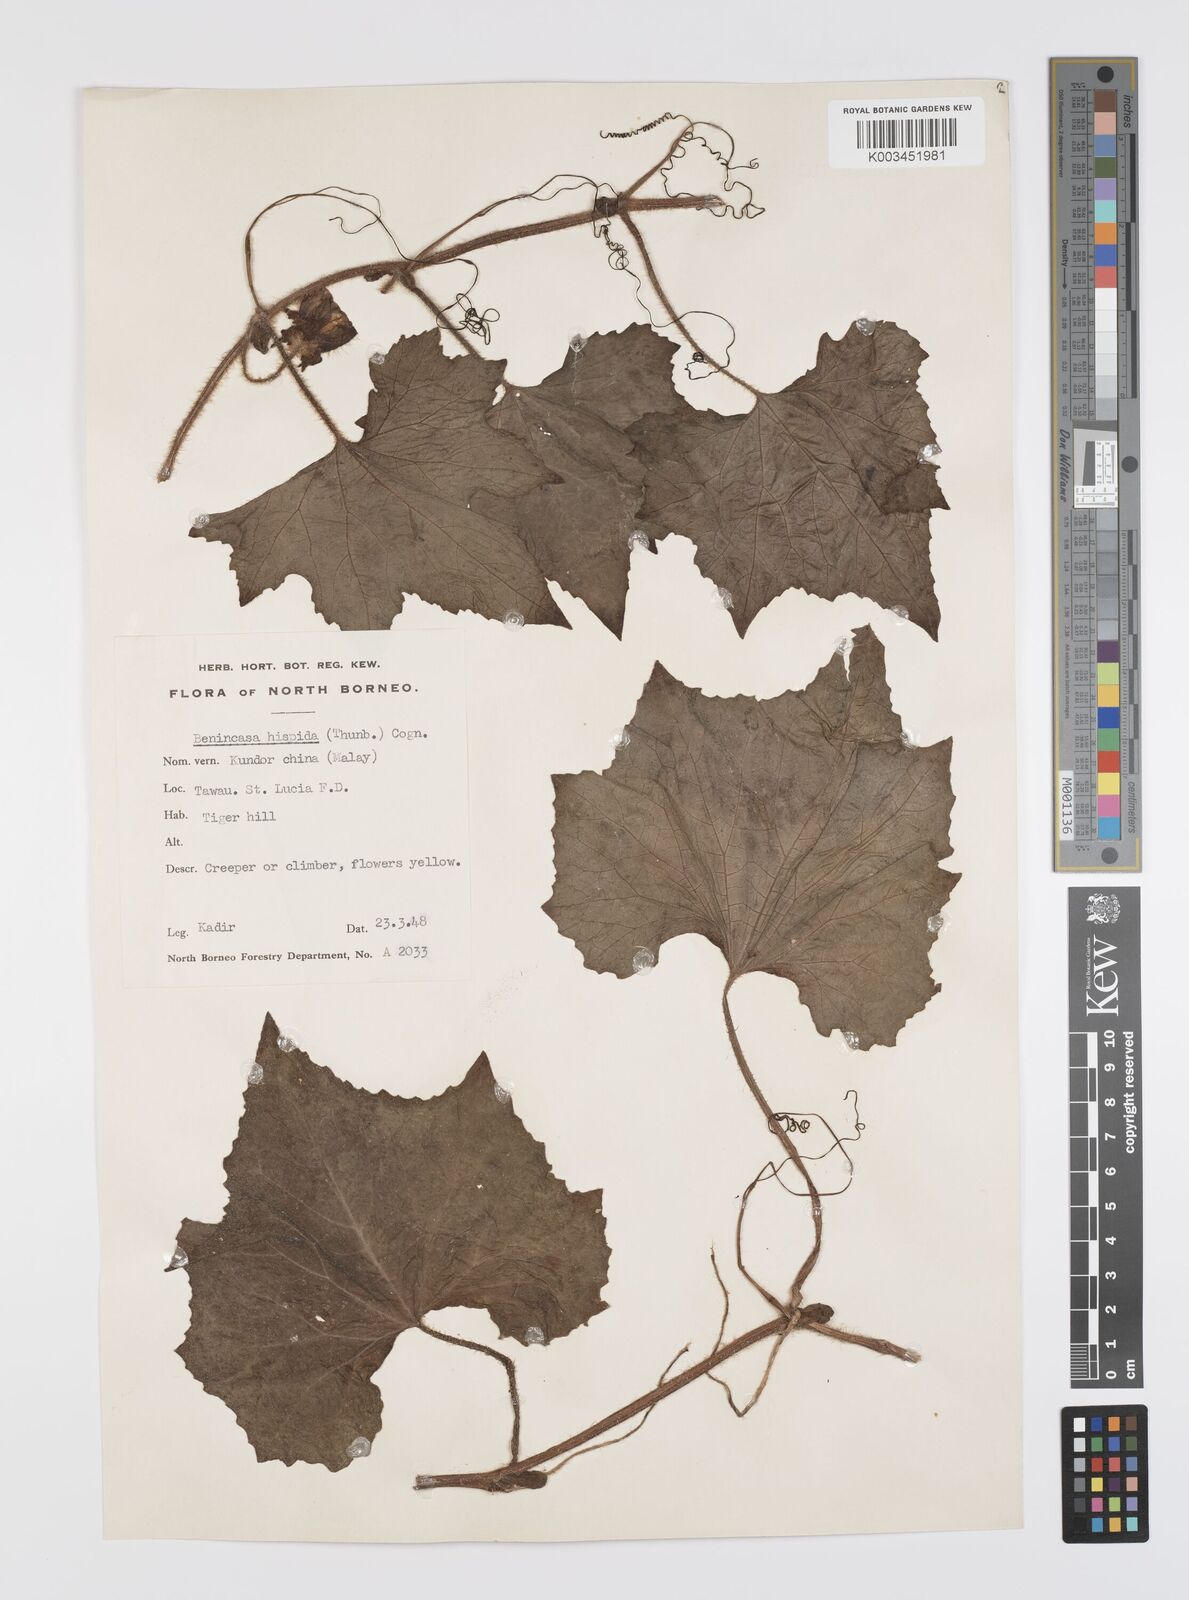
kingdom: Plantae
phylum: Tracheophyta
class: Magnoliopsida
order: Cucurbitales
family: Cucurbitaceae
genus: Benincasa
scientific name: Benincasa hispida
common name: Chinese-watermelon
